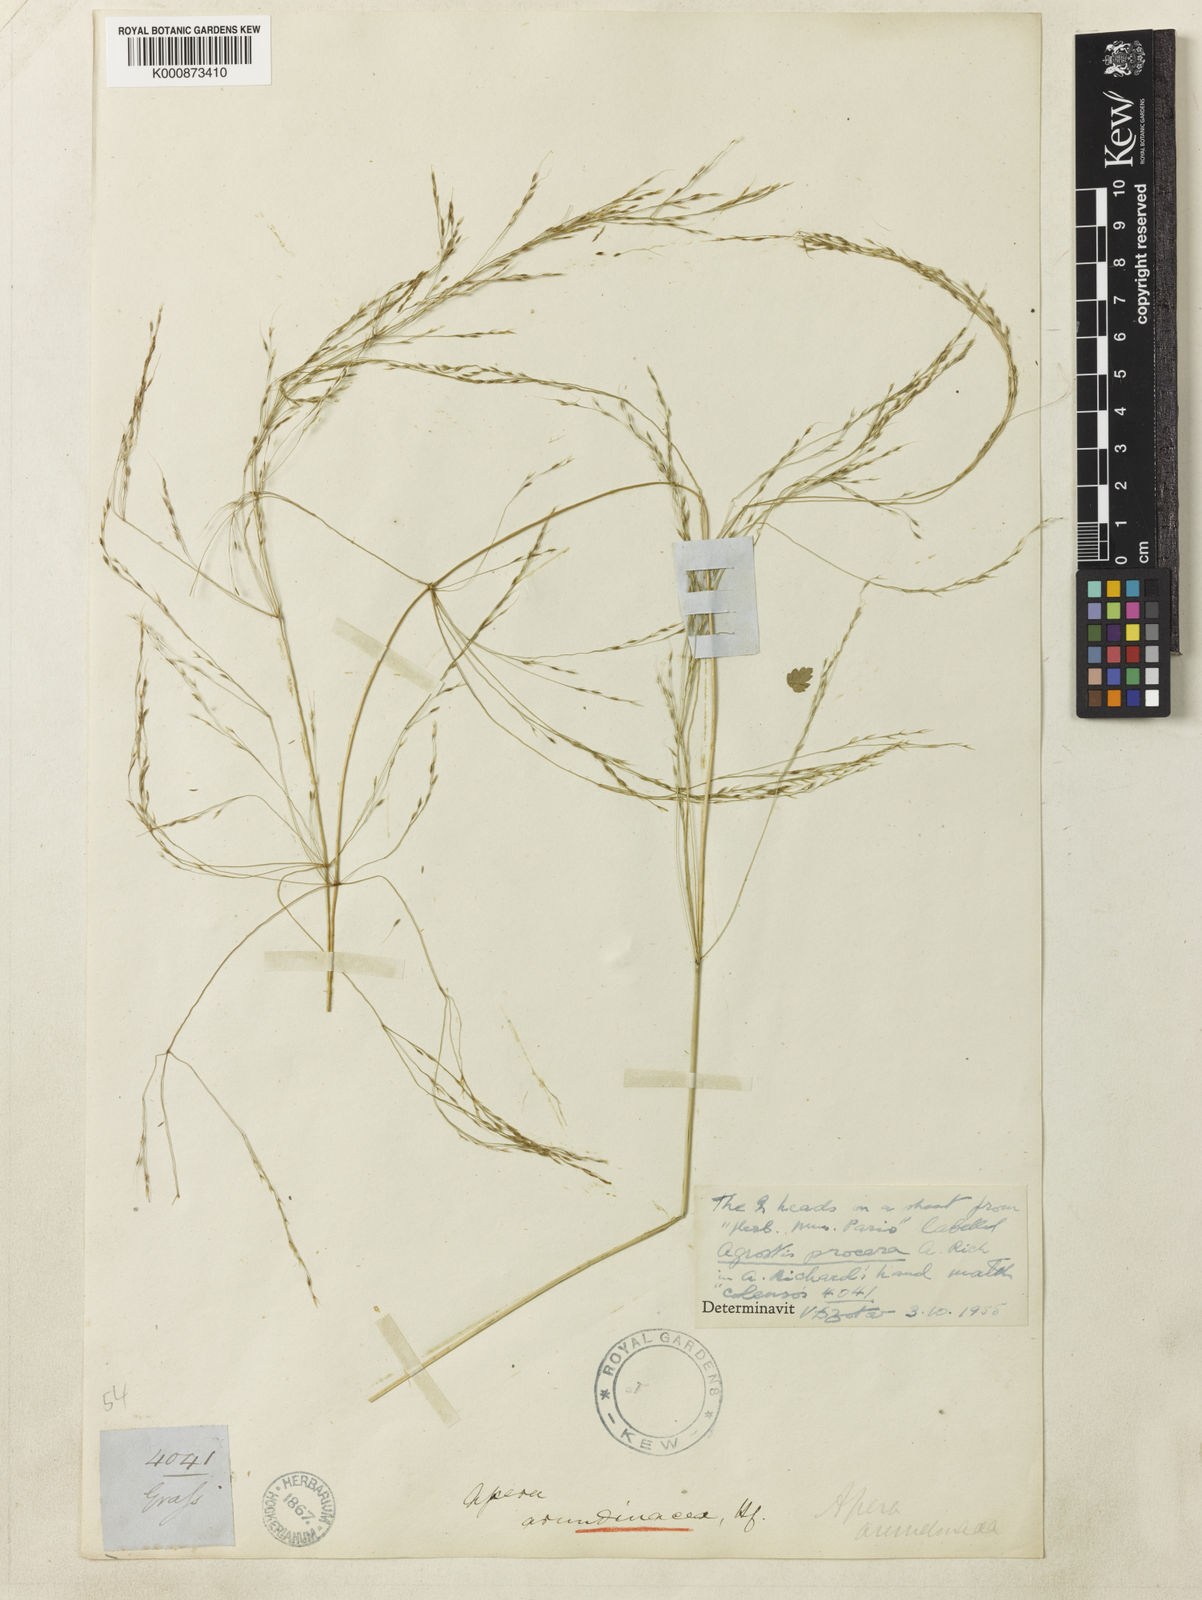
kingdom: Plantae
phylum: Tracheophyta
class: Liliopsida
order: Poales
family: Poaceae
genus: Stipa
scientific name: Stipa
